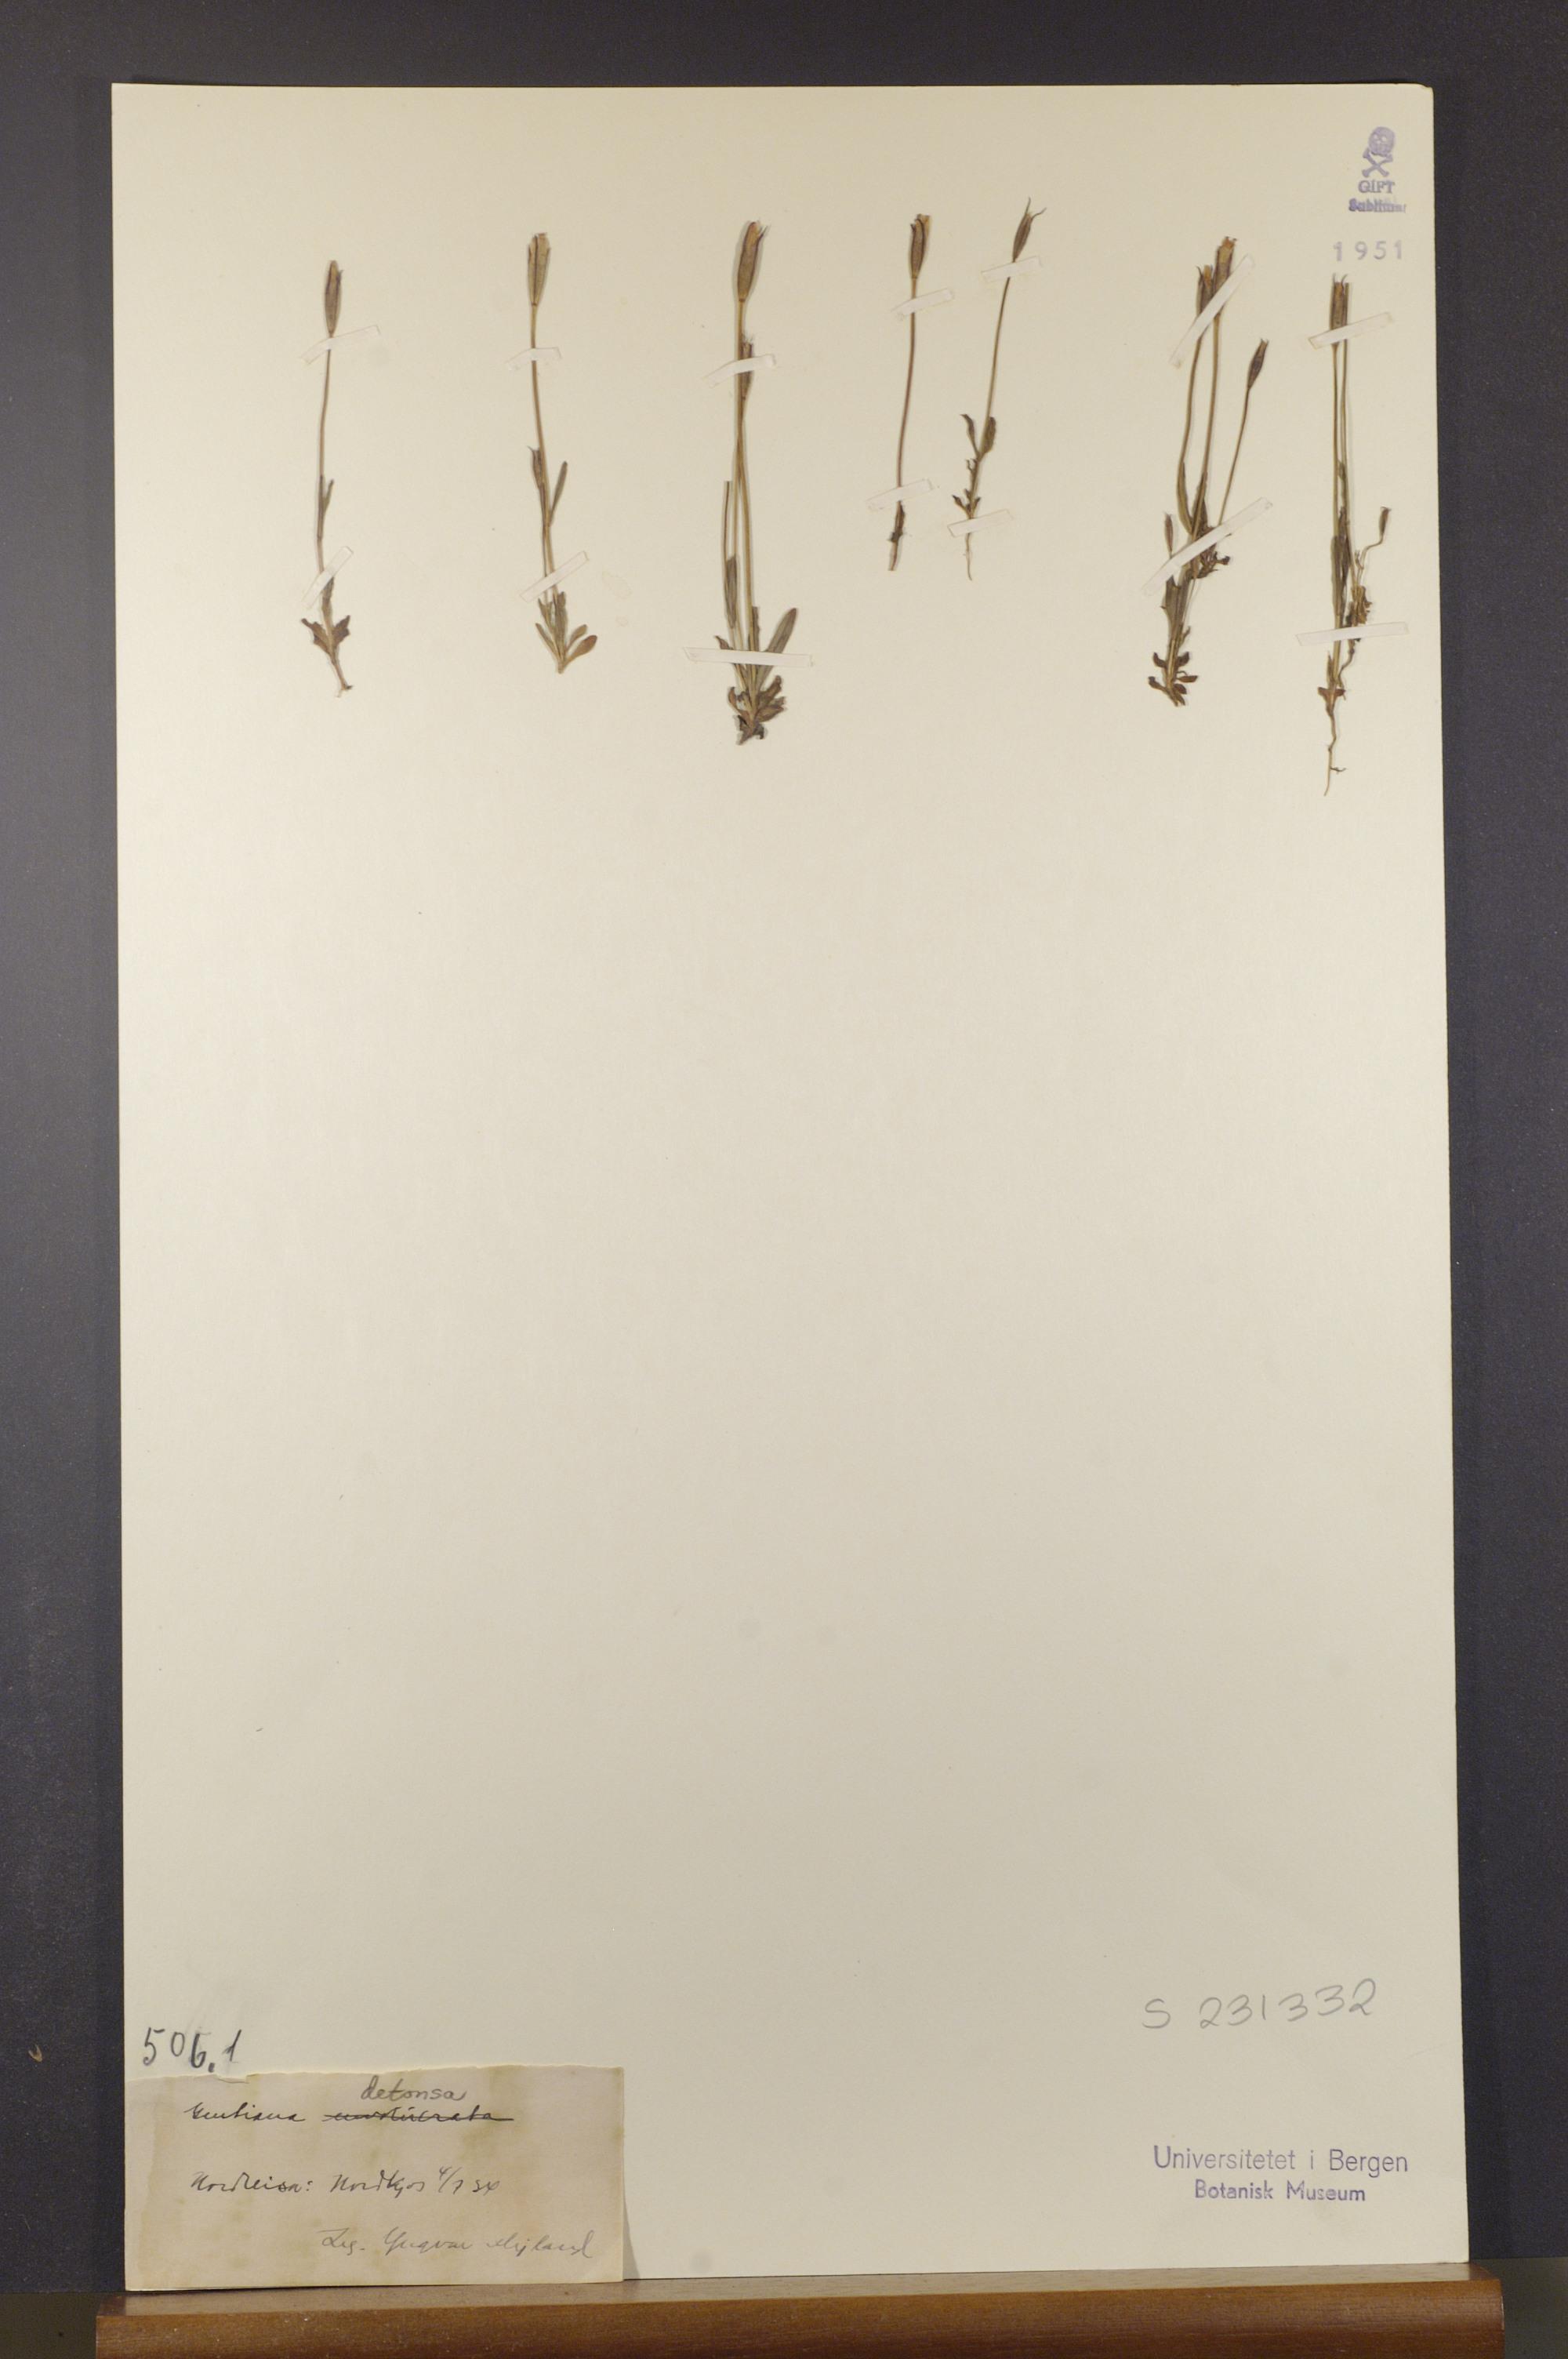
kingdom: Plantae
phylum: Tracheophyta
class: Magnoliopsida
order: Gentianales
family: Gentianaceae
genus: Gentianopsis
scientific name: Gentianopsis detonsa
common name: Fringed-gentian
